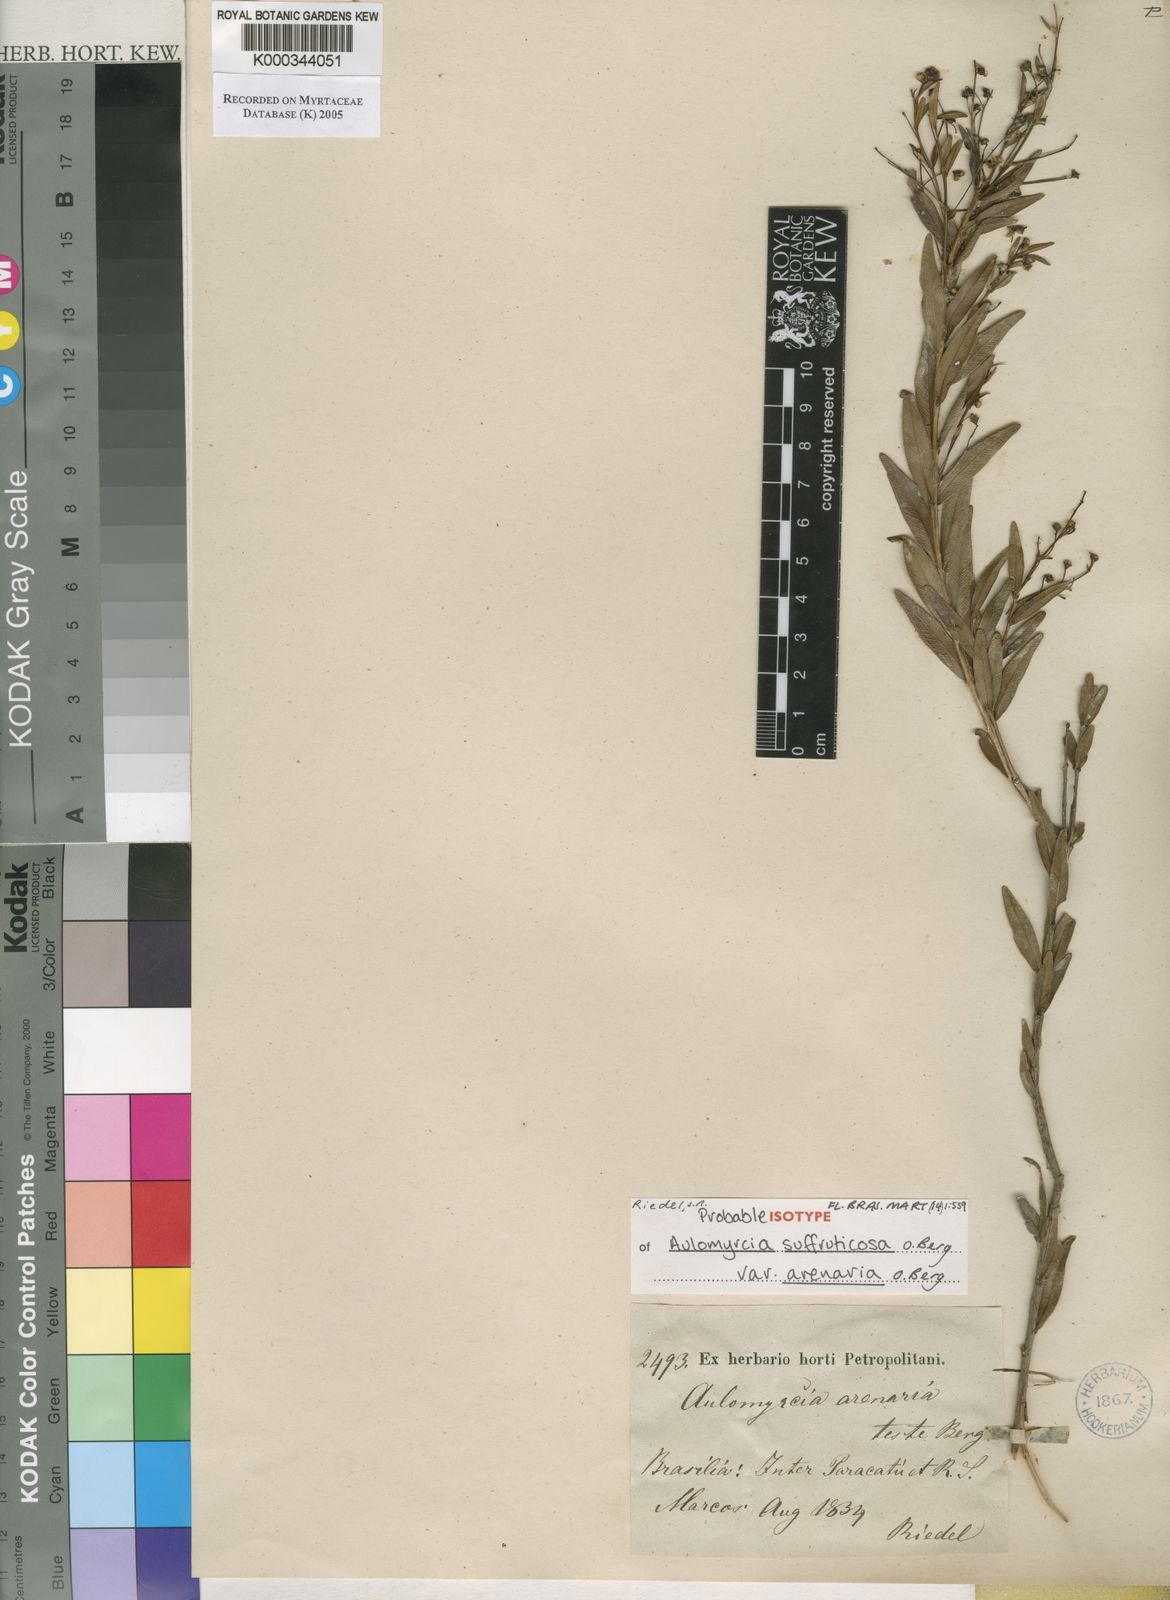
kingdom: Plantae
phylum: Tracheophyta
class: Magnoliopsida
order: Myrtales
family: Myrtaceae
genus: Myrcia
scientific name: Myrcia paracatuensis
